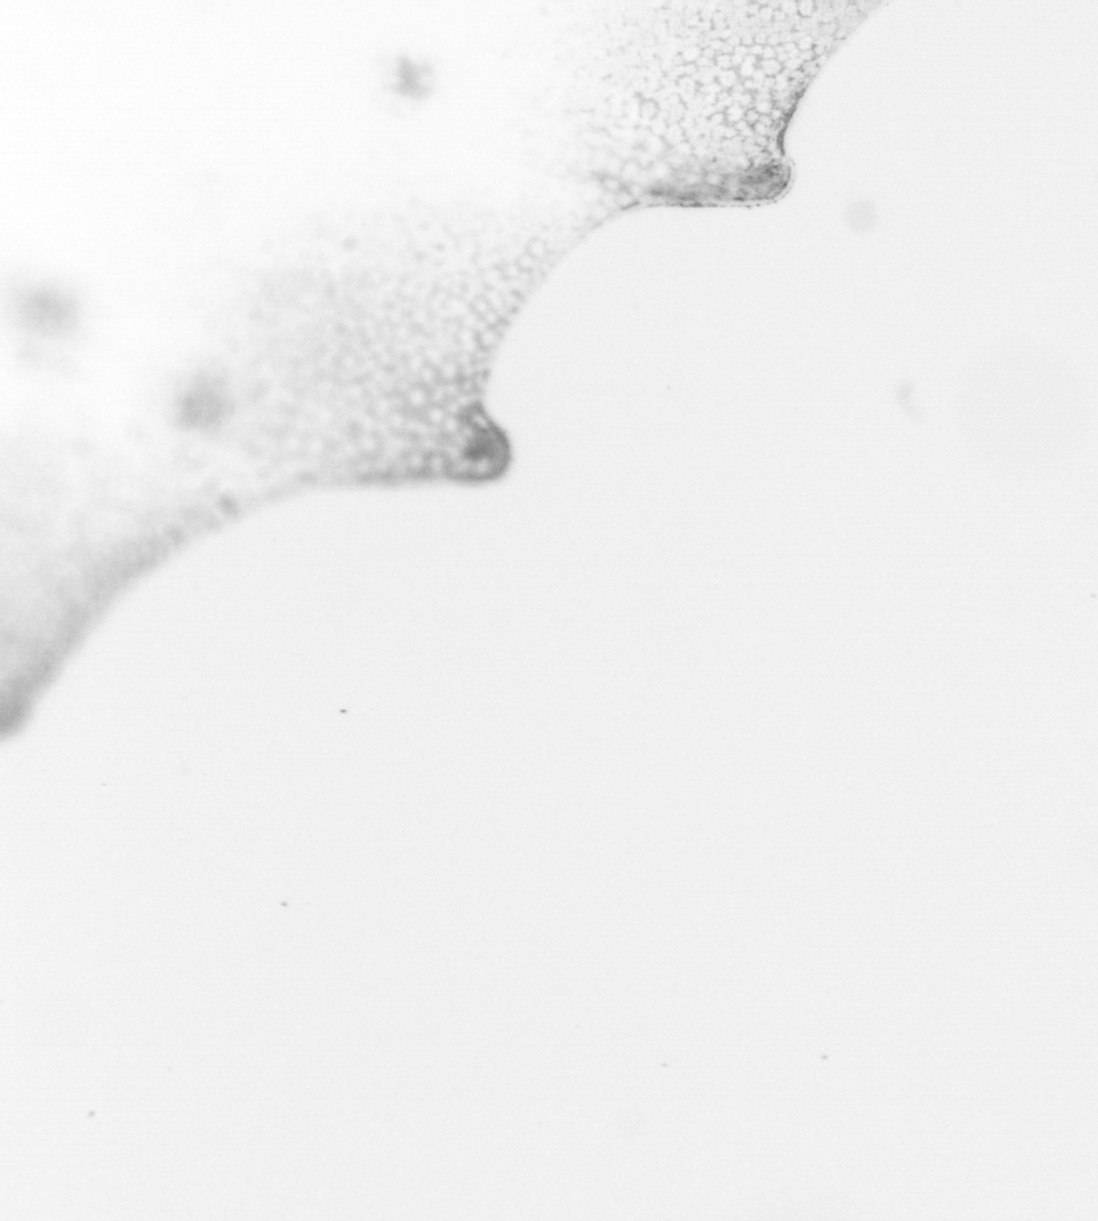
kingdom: Animalia
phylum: Chordata
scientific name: Chordata
